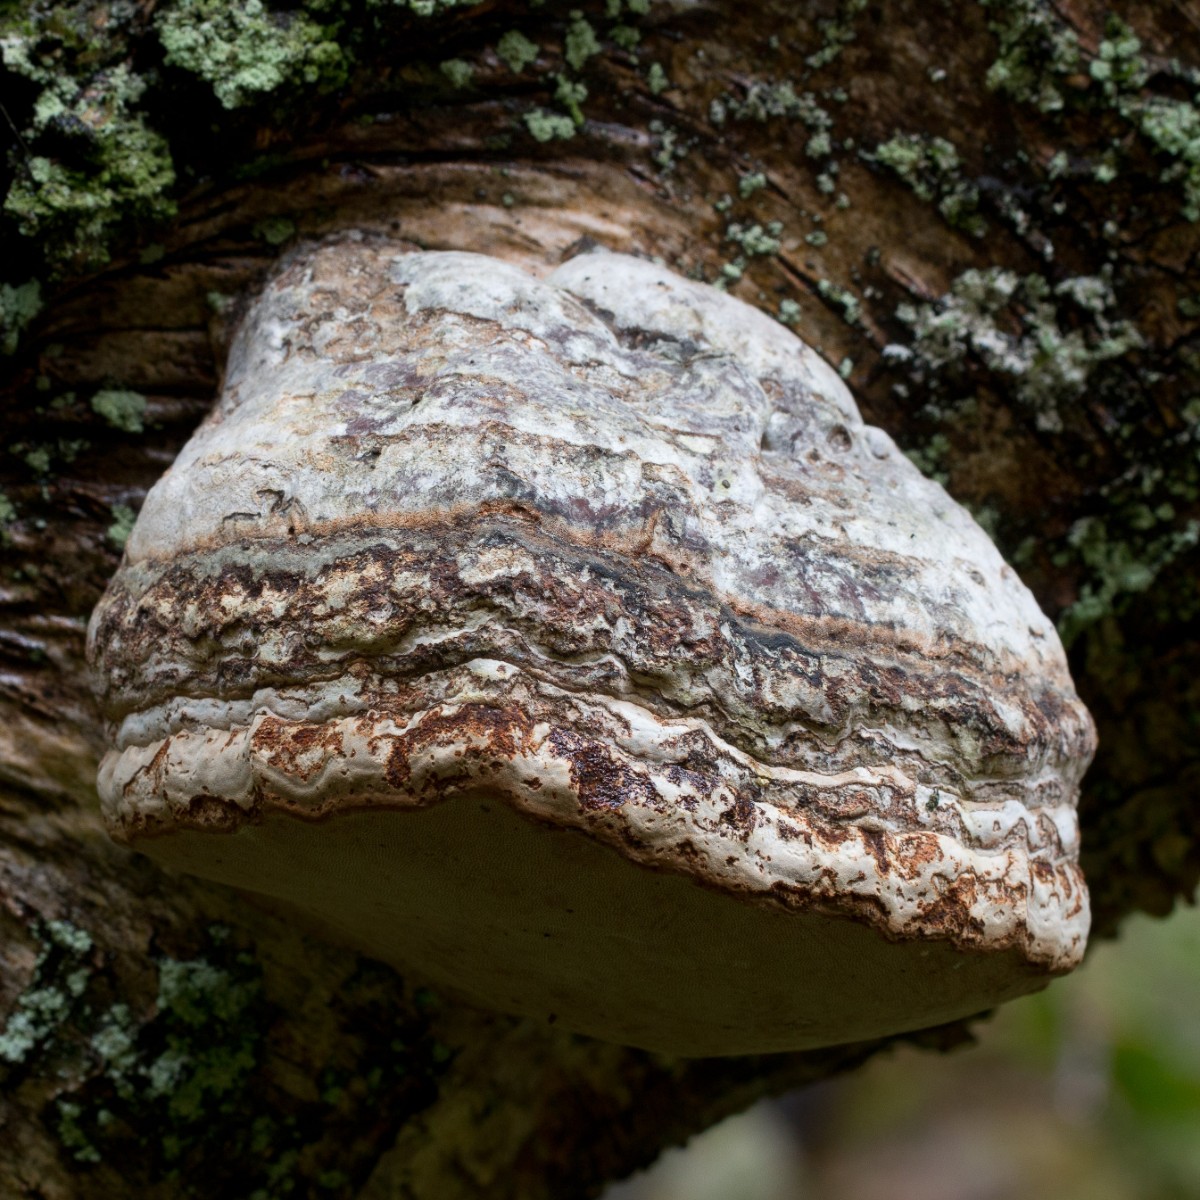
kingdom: Fungi
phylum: Basidiomycota
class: Agaricomycetes
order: Polyporales
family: Polyporaceae
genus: Fomes
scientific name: Fomes fomentarius
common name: tøndersvamp
